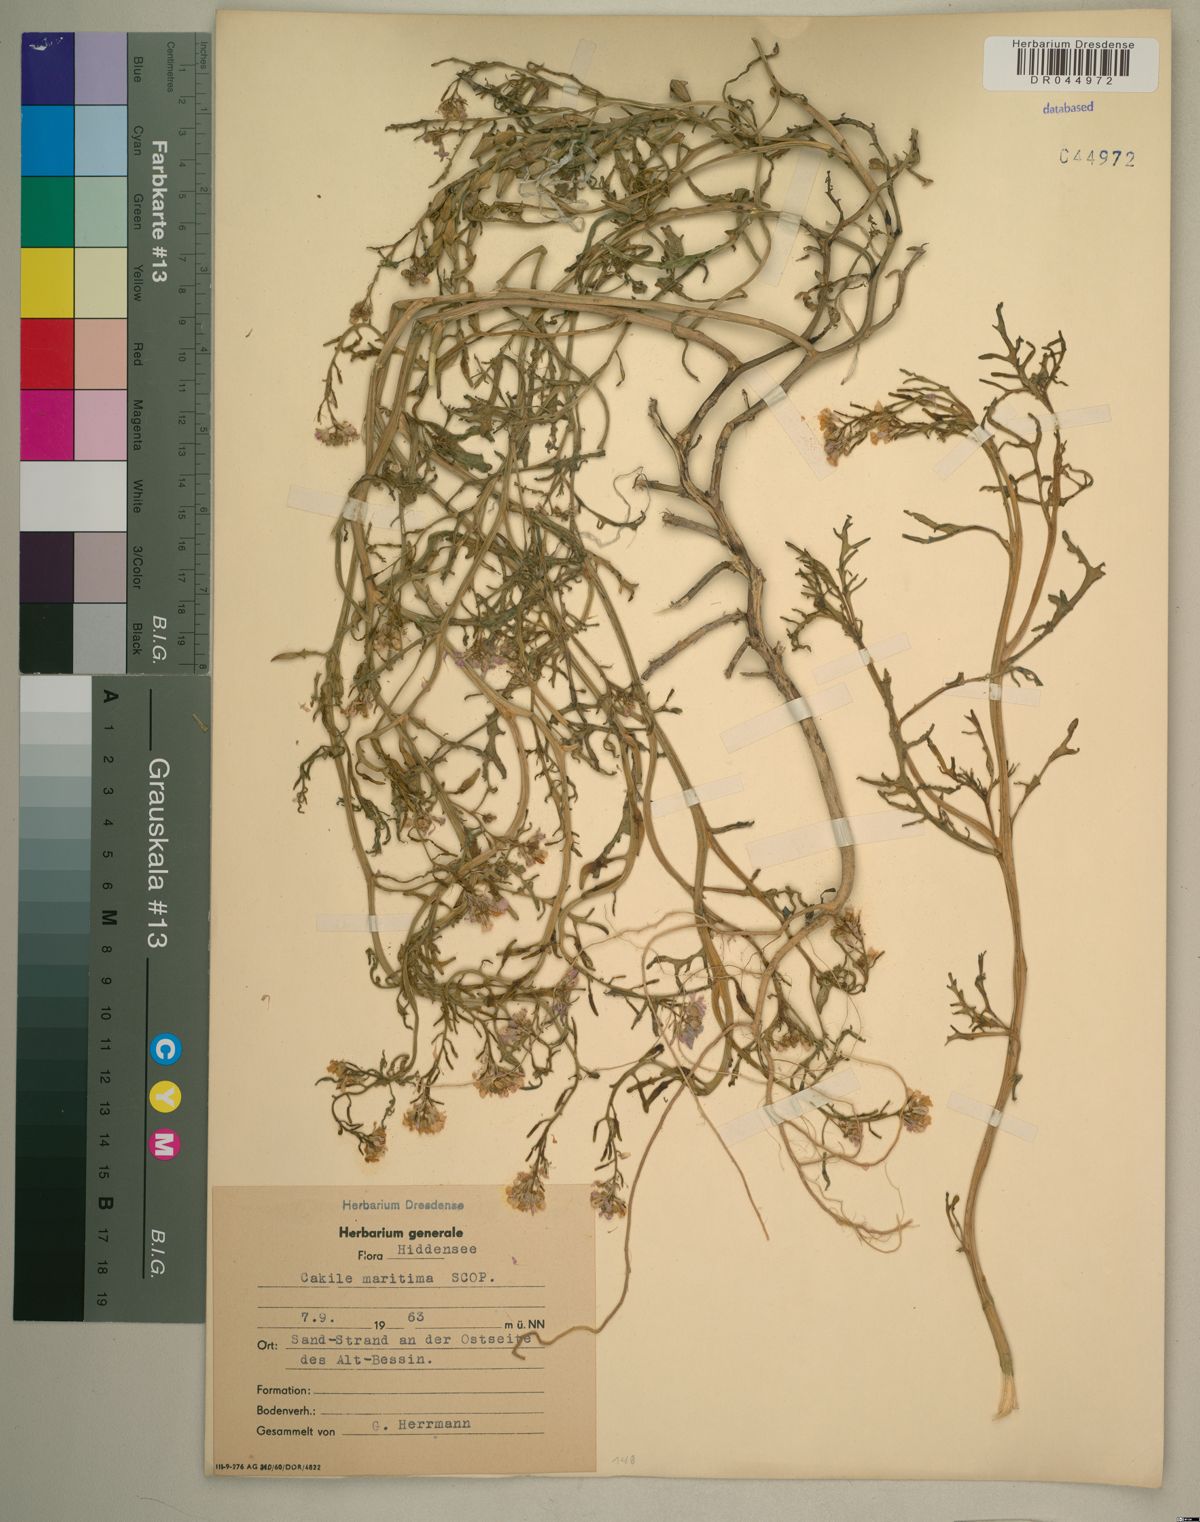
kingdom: Plantae
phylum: Tracheophyta
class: Magnoliopsida
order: Brassicales
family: Brassicaceae
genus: Cakile
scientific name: Cakile maritima
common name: Sea rocket
